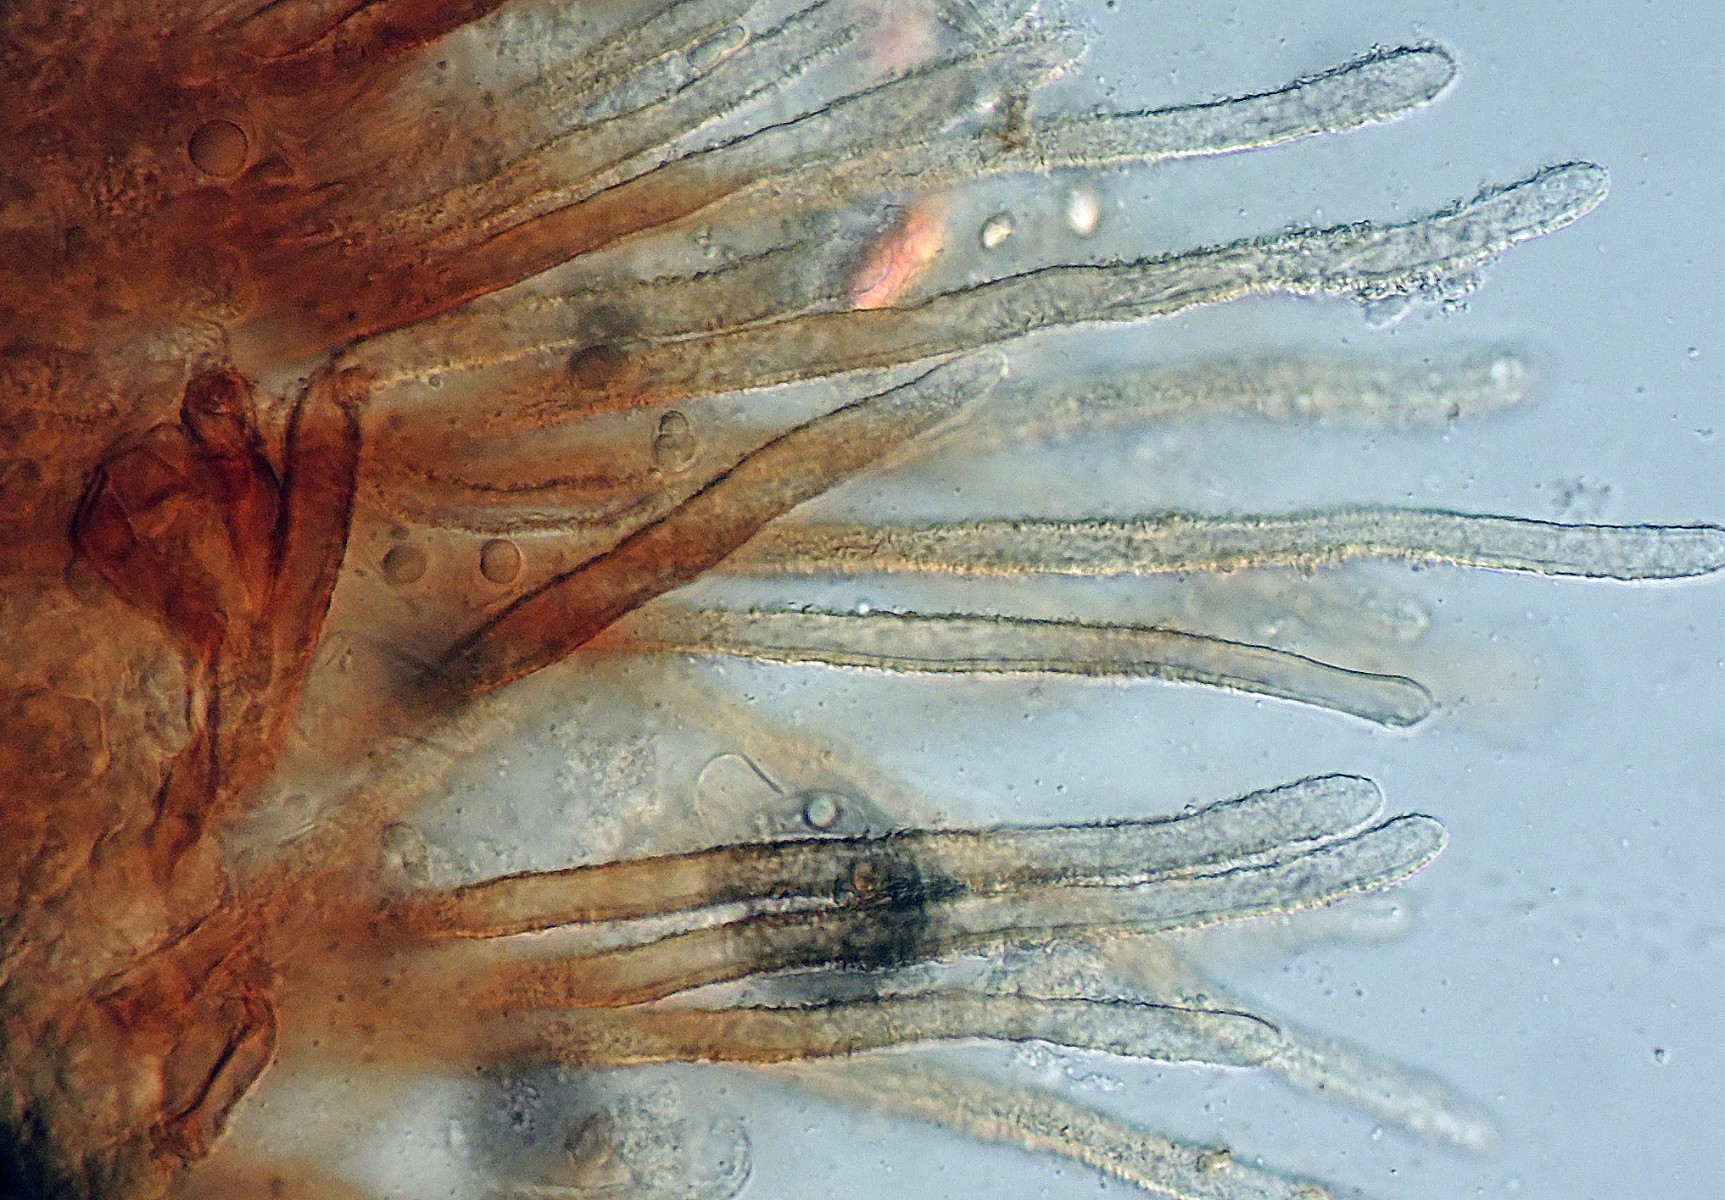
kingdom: Fungi
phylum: Basidiomycota
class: Agaricomycetes
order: Agaricales
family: Niaceae
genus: Merismodes
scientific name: Merismodes
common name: urte-læderskål
